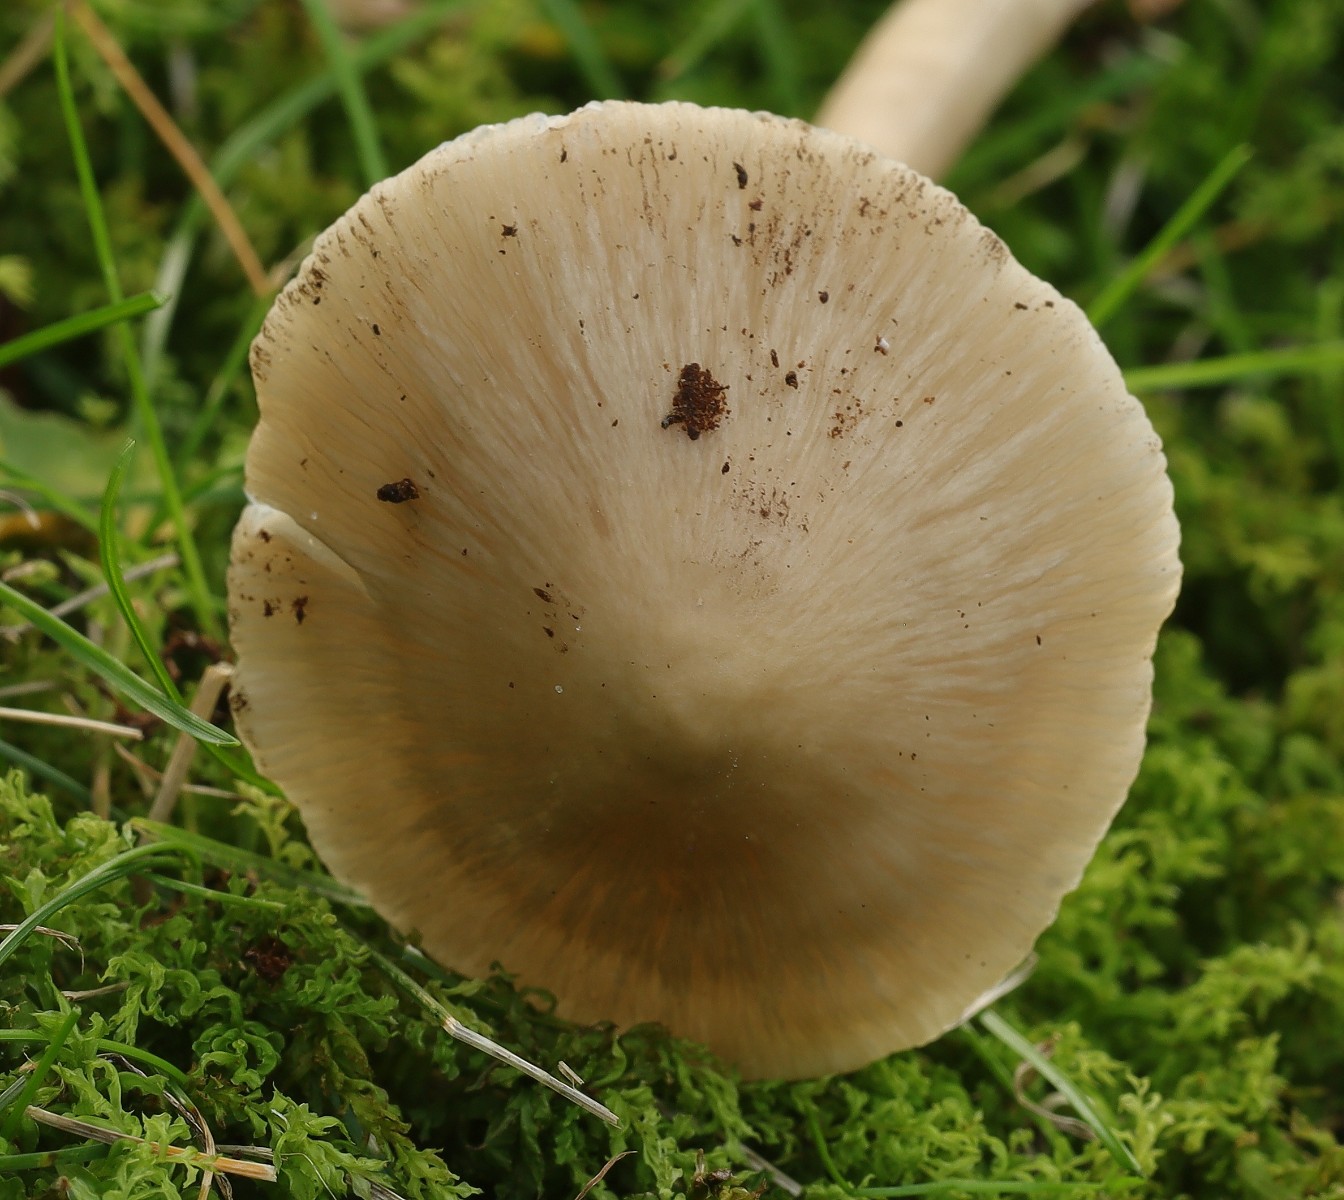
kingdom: Fungi
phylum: Basidiomycota
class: Agaricomycetes
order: Agaricales
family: Mycenaceae
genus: Mycena
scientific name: Mycena galericulata
